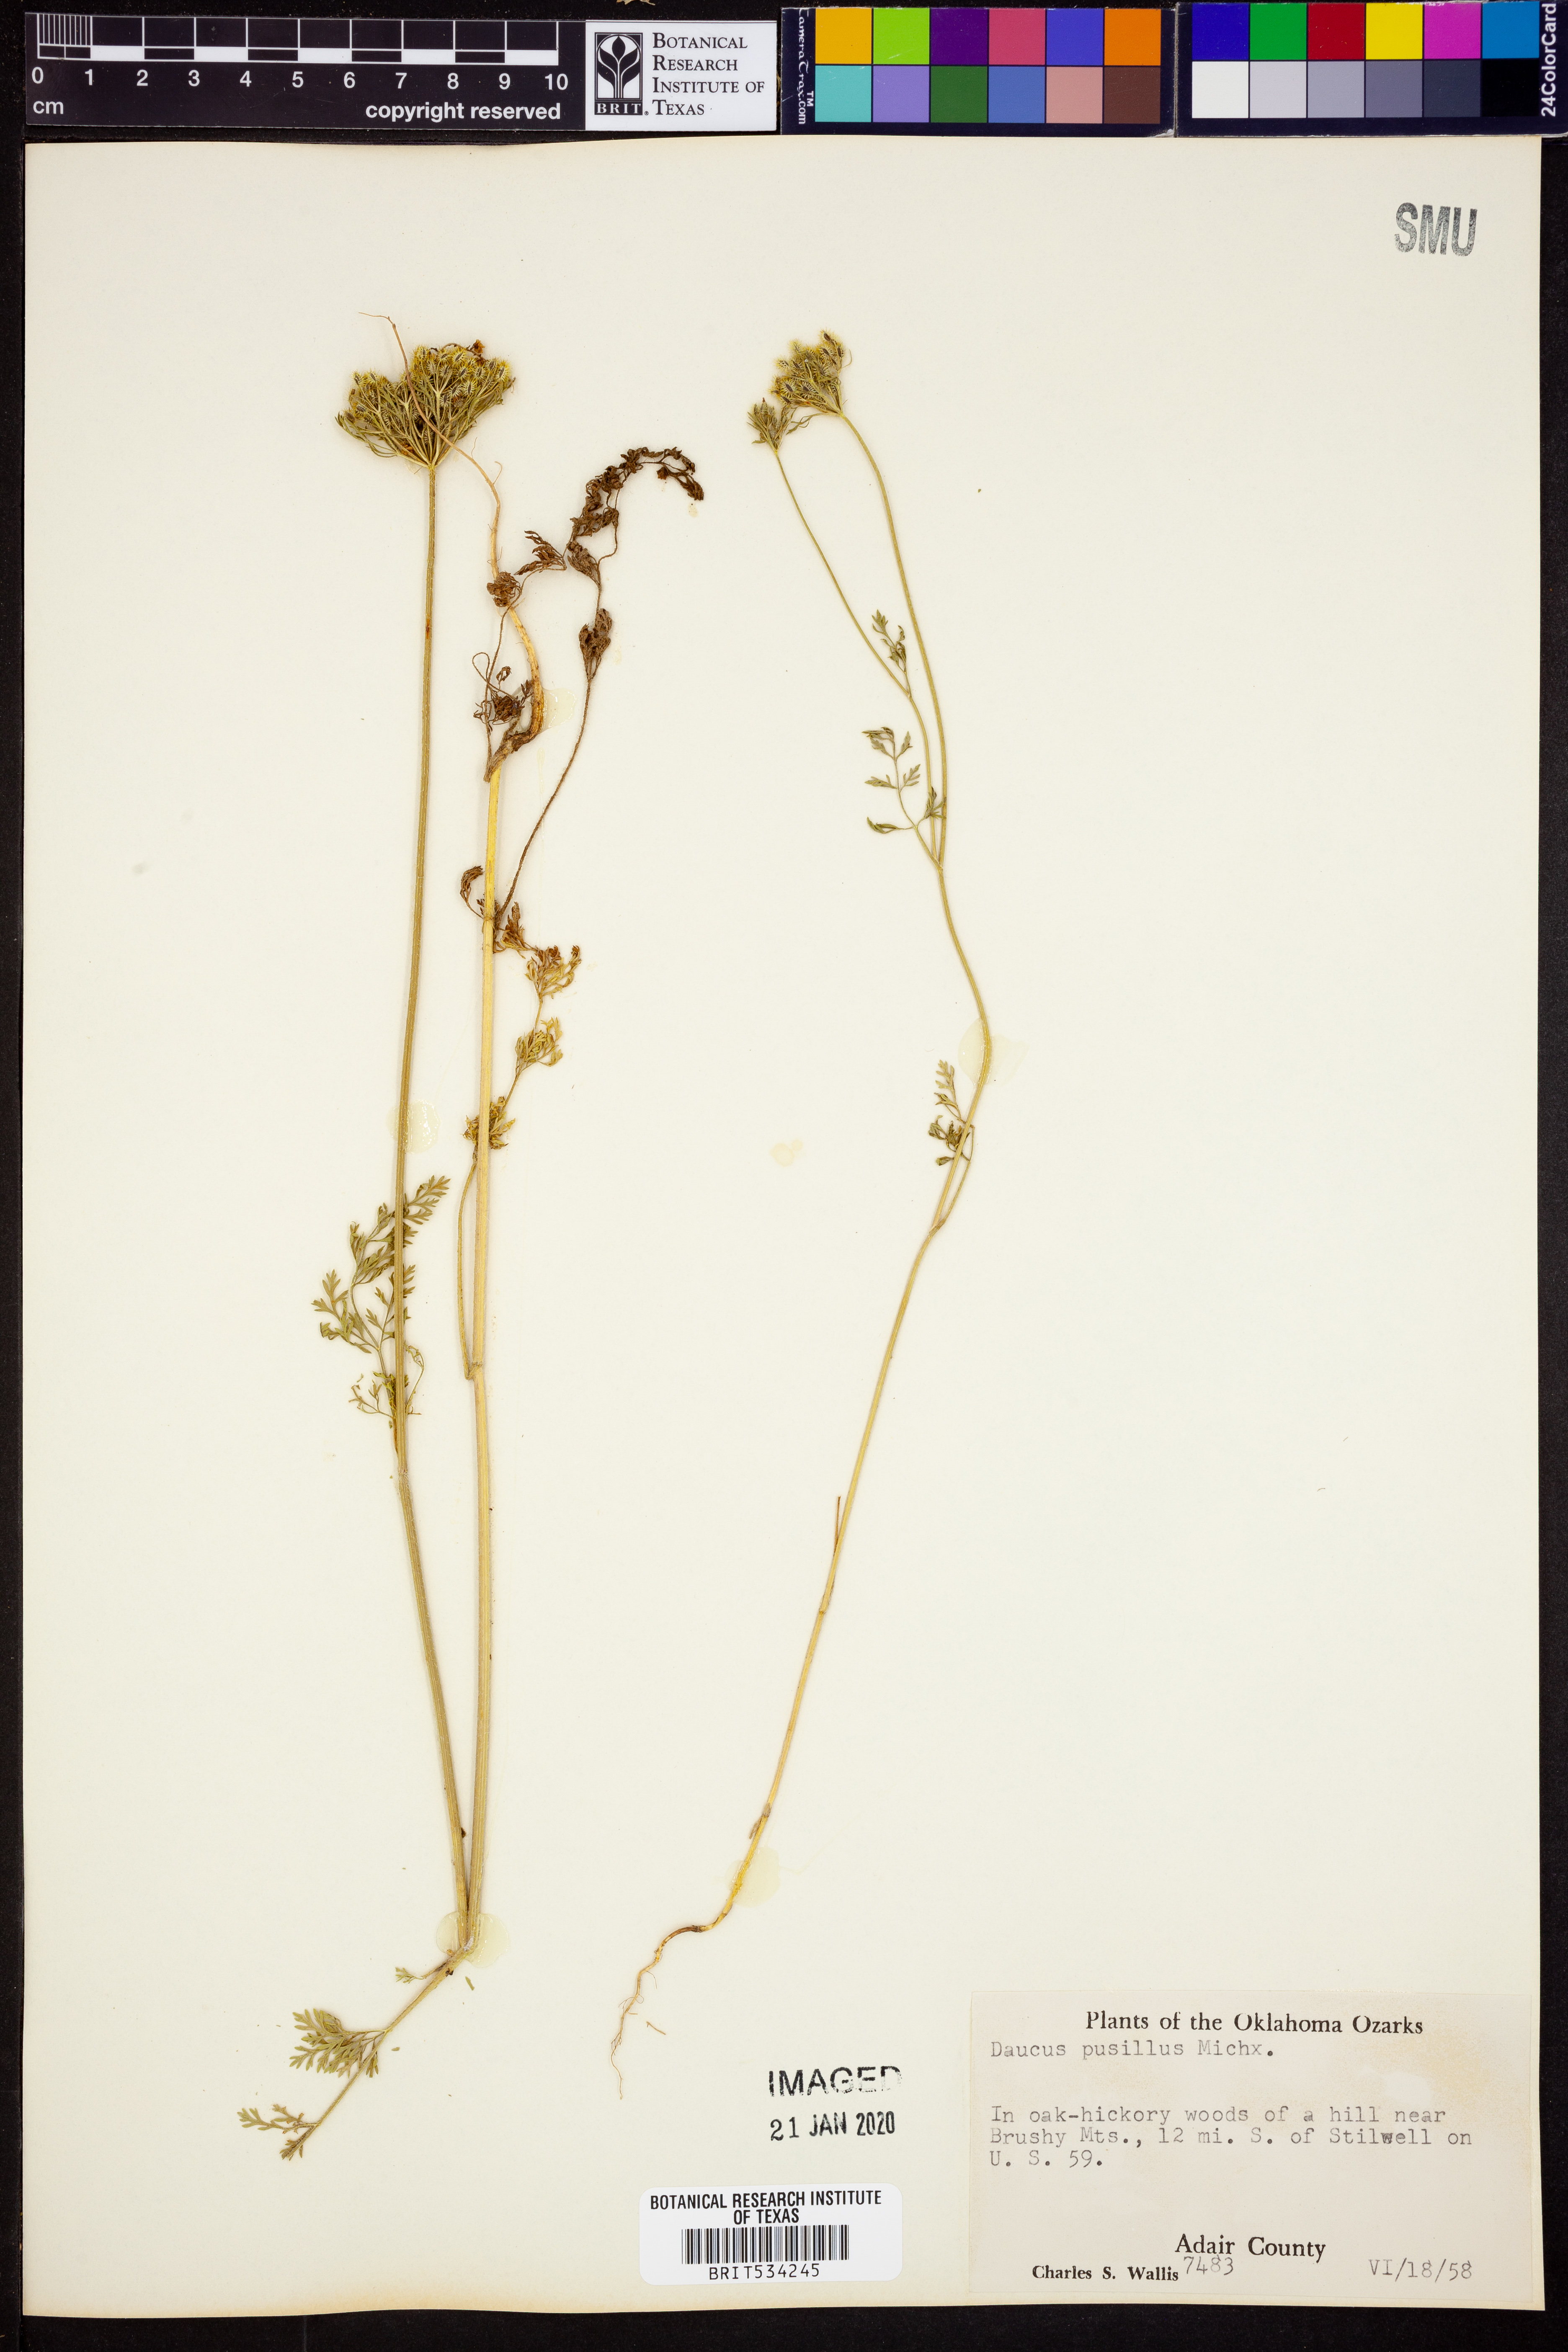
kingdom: Plantae
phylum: Tracheophyta
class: Magnoliopsida
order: Apiales
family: Apiaceae
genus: Daucus
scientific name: Daucus pusillus
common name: Southwest wild carrot
